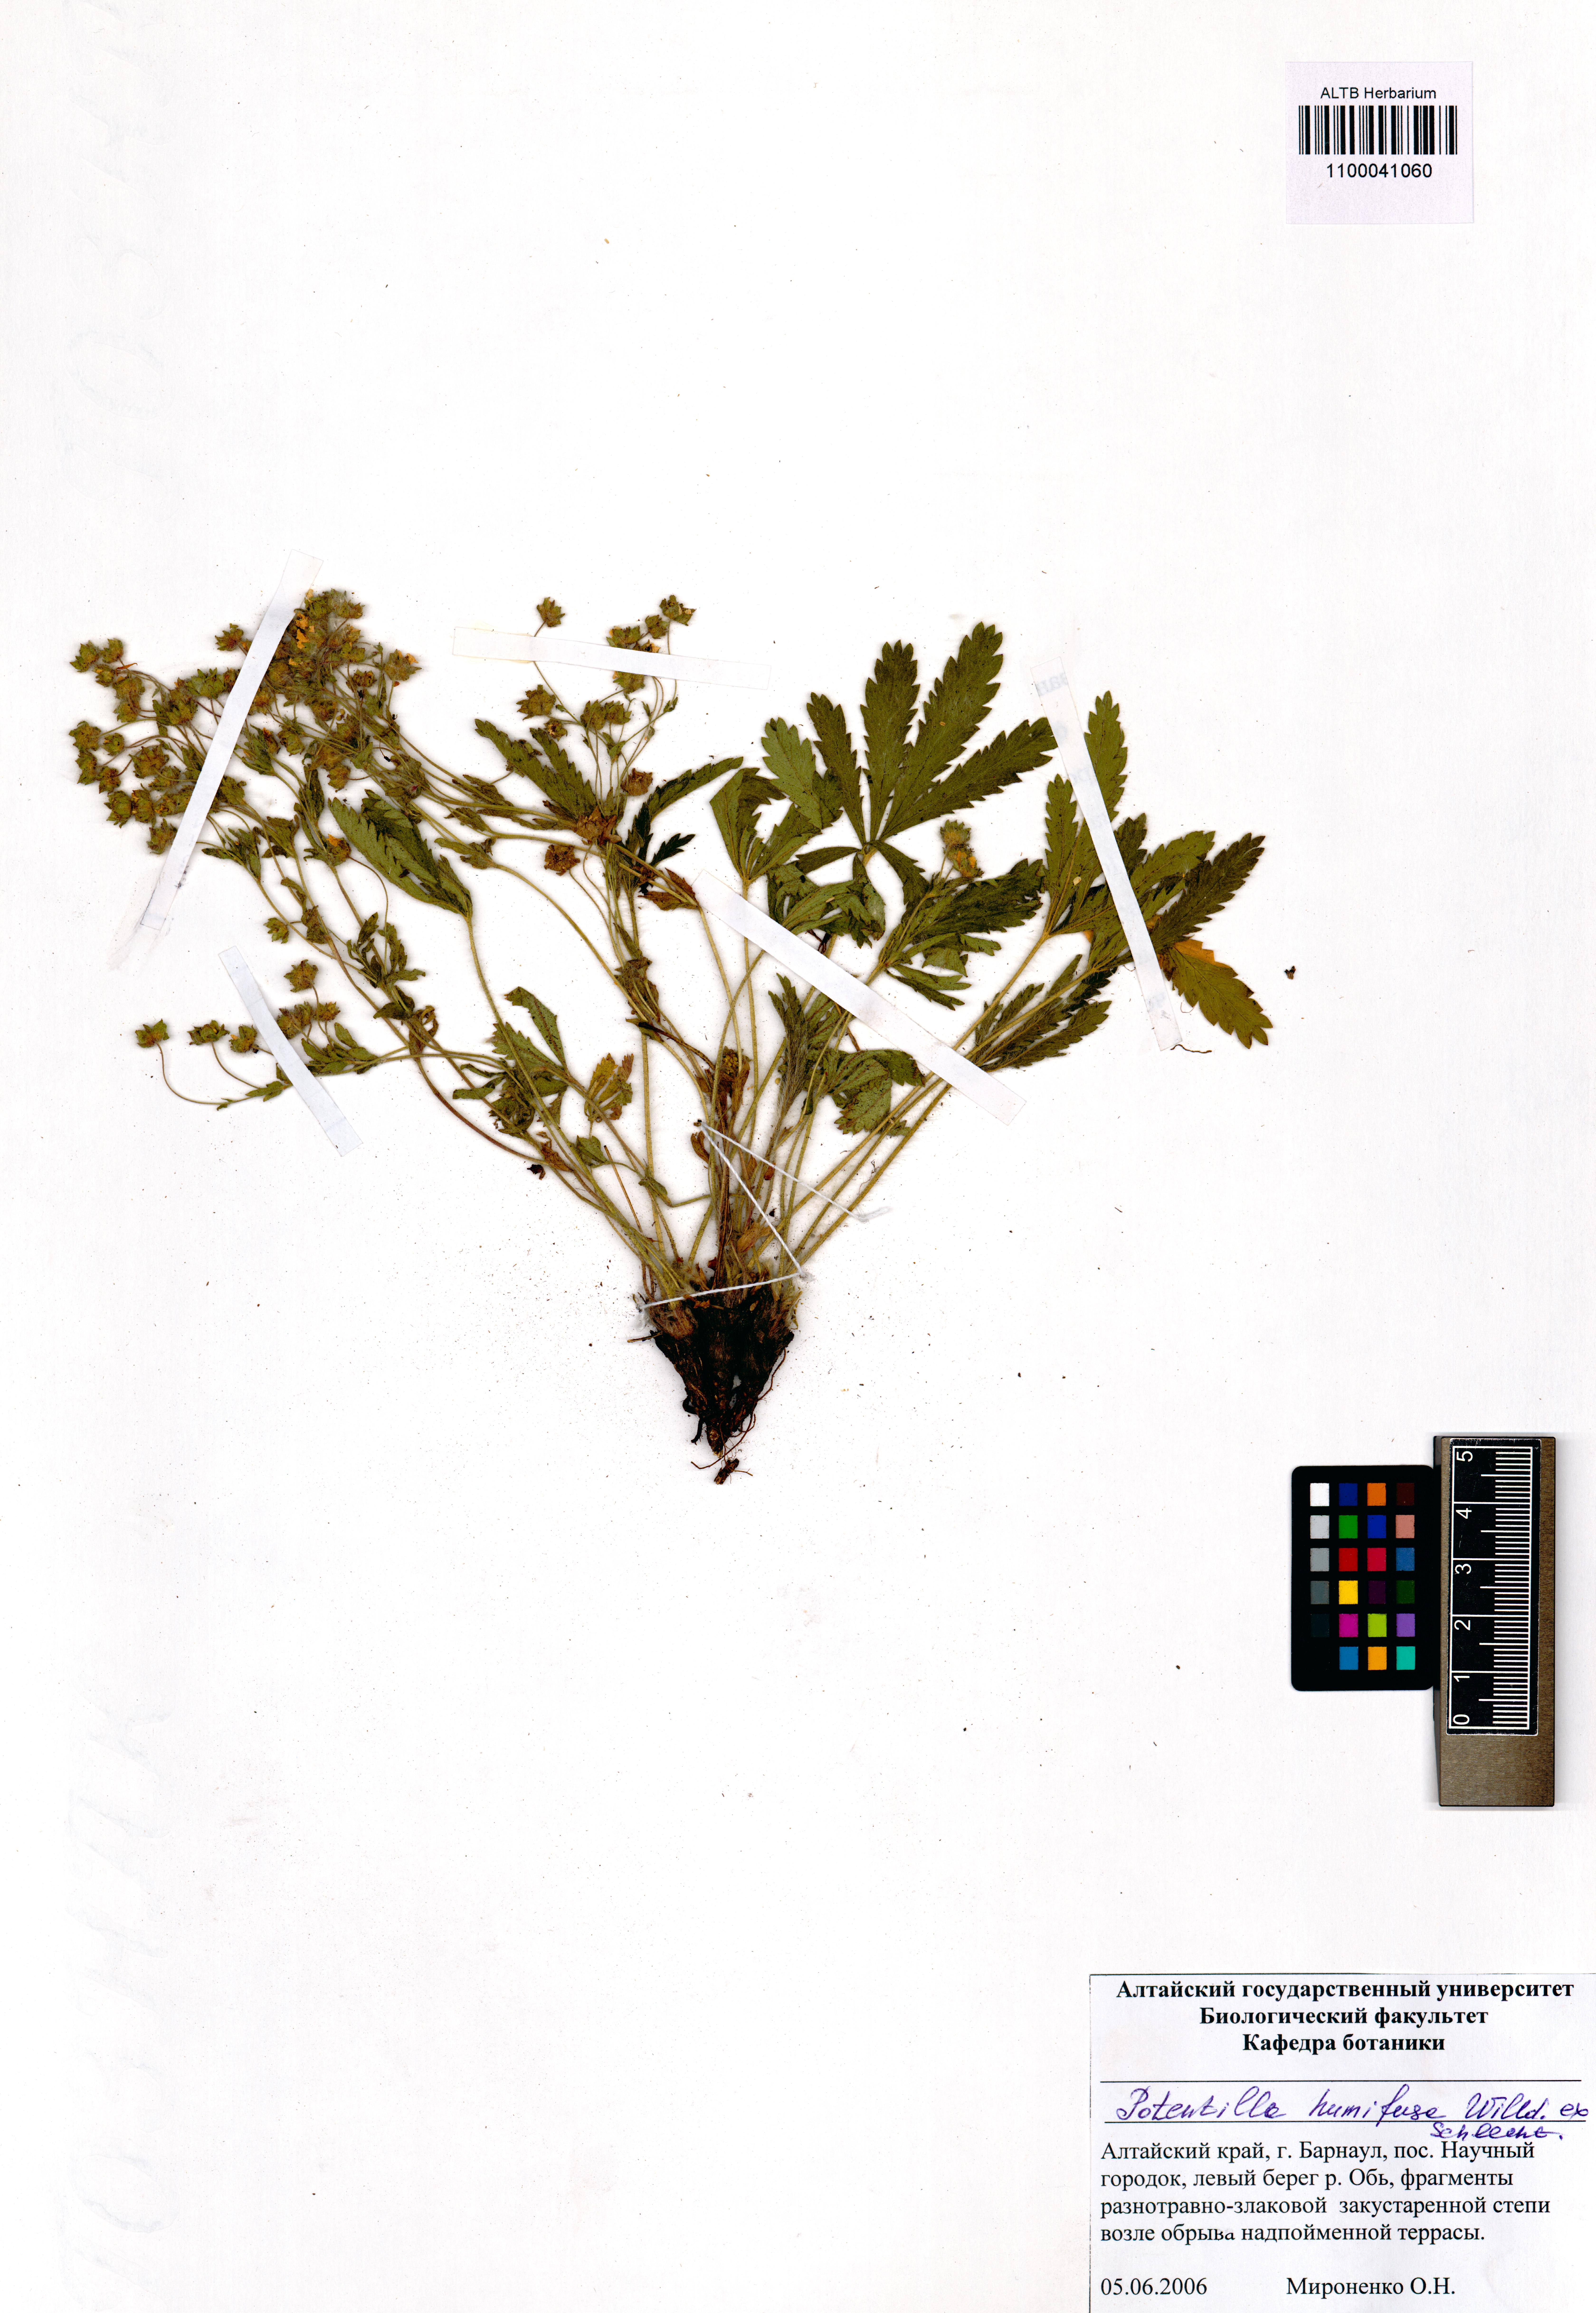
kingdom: Plantae
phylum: Tracheophyta
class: Magnoliopsida
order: Rosales
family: Rosaceae
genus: Potentilla
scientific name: Potentilla humifusa
